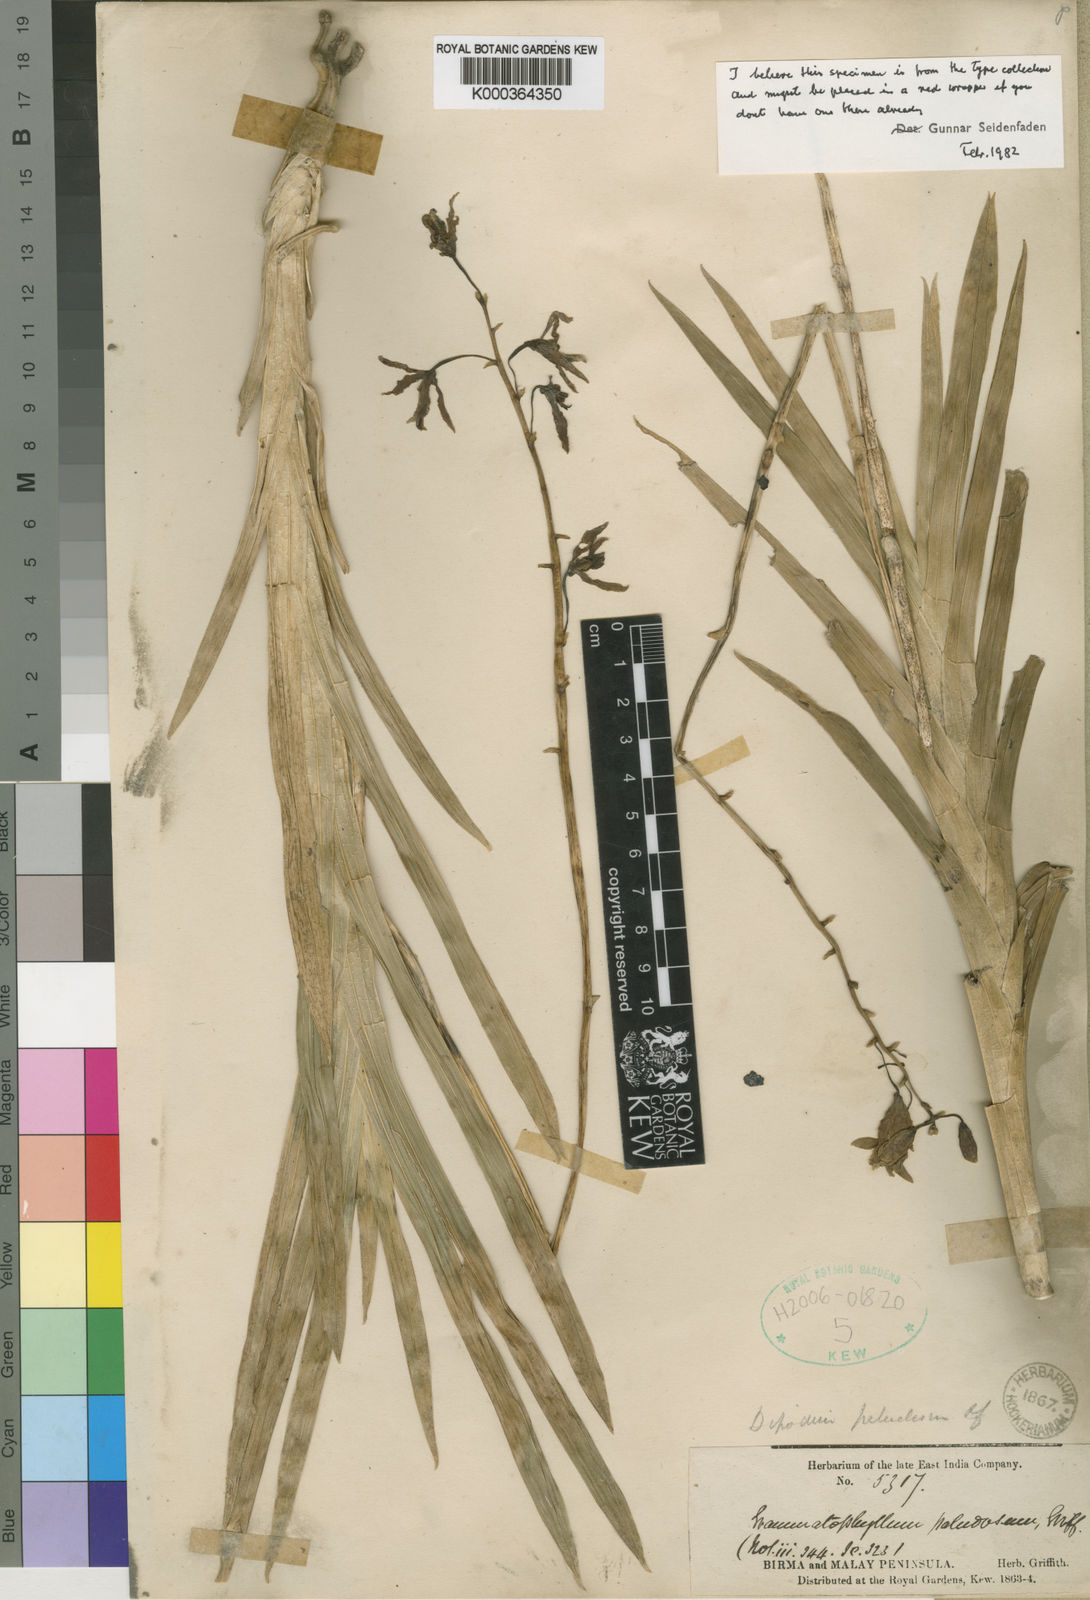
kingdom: Plantae
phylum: Tracheophyta
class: Liliopsida
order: Asparagales
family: Orchidaceae
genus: Dipodium
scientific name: Dipodium paludosum
